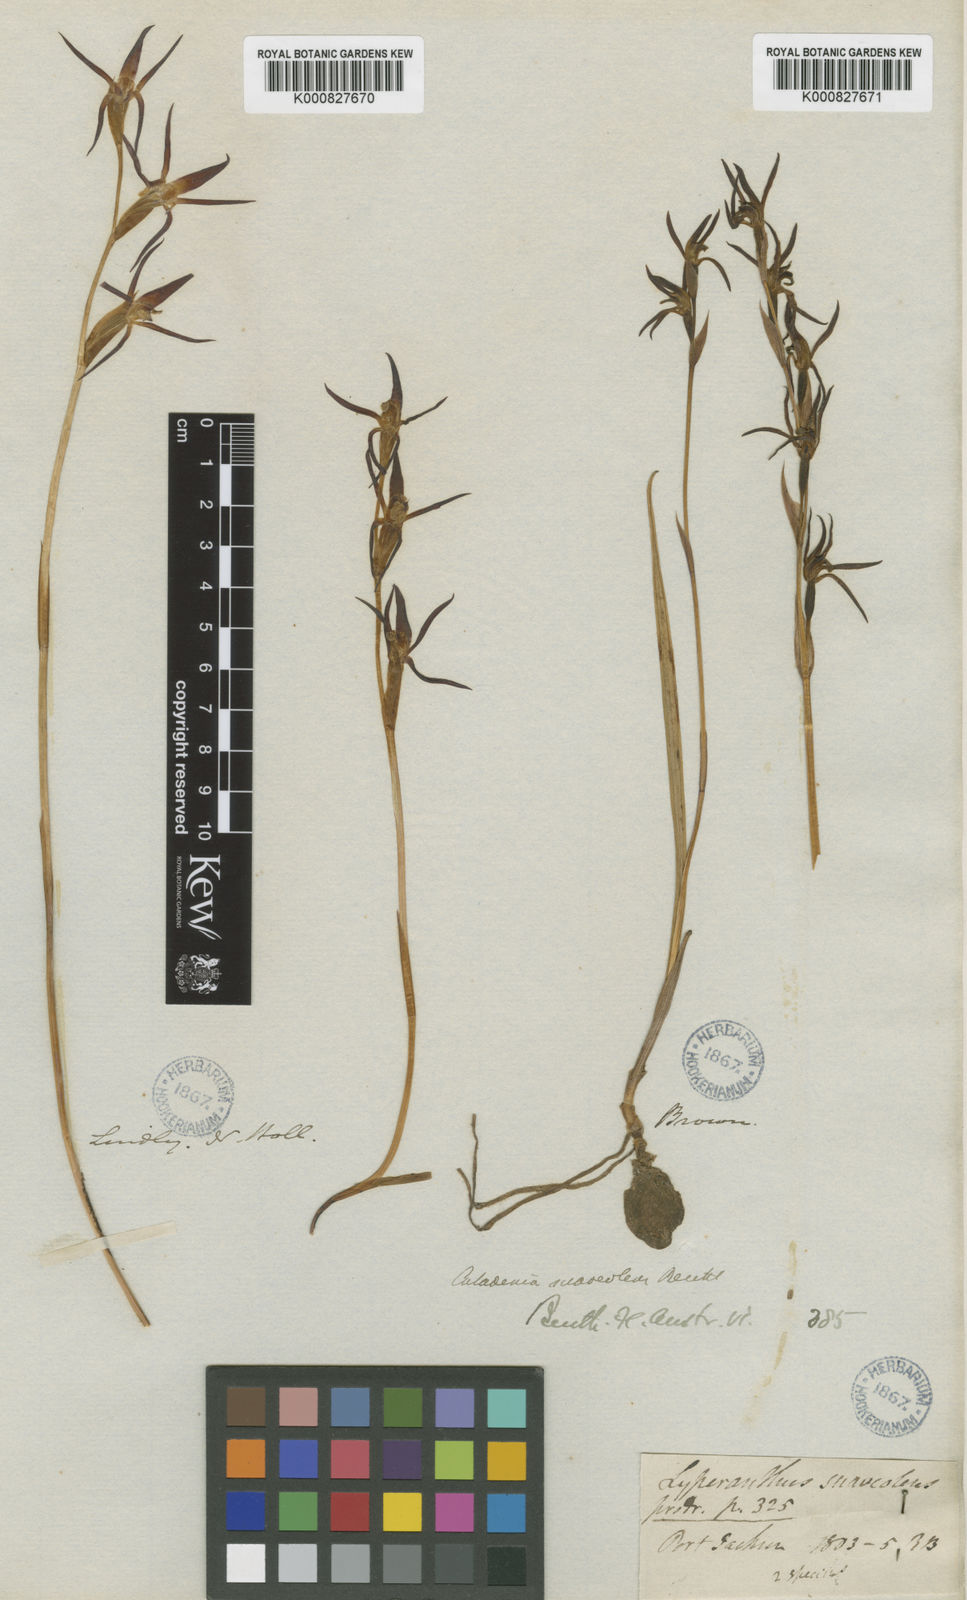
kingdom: Plantae
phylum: Tracheophyta
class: Liliopsida
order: Asparagales
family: Orchidaceae
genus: Lyperanthus
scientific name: Lyperanthus suaveolens
